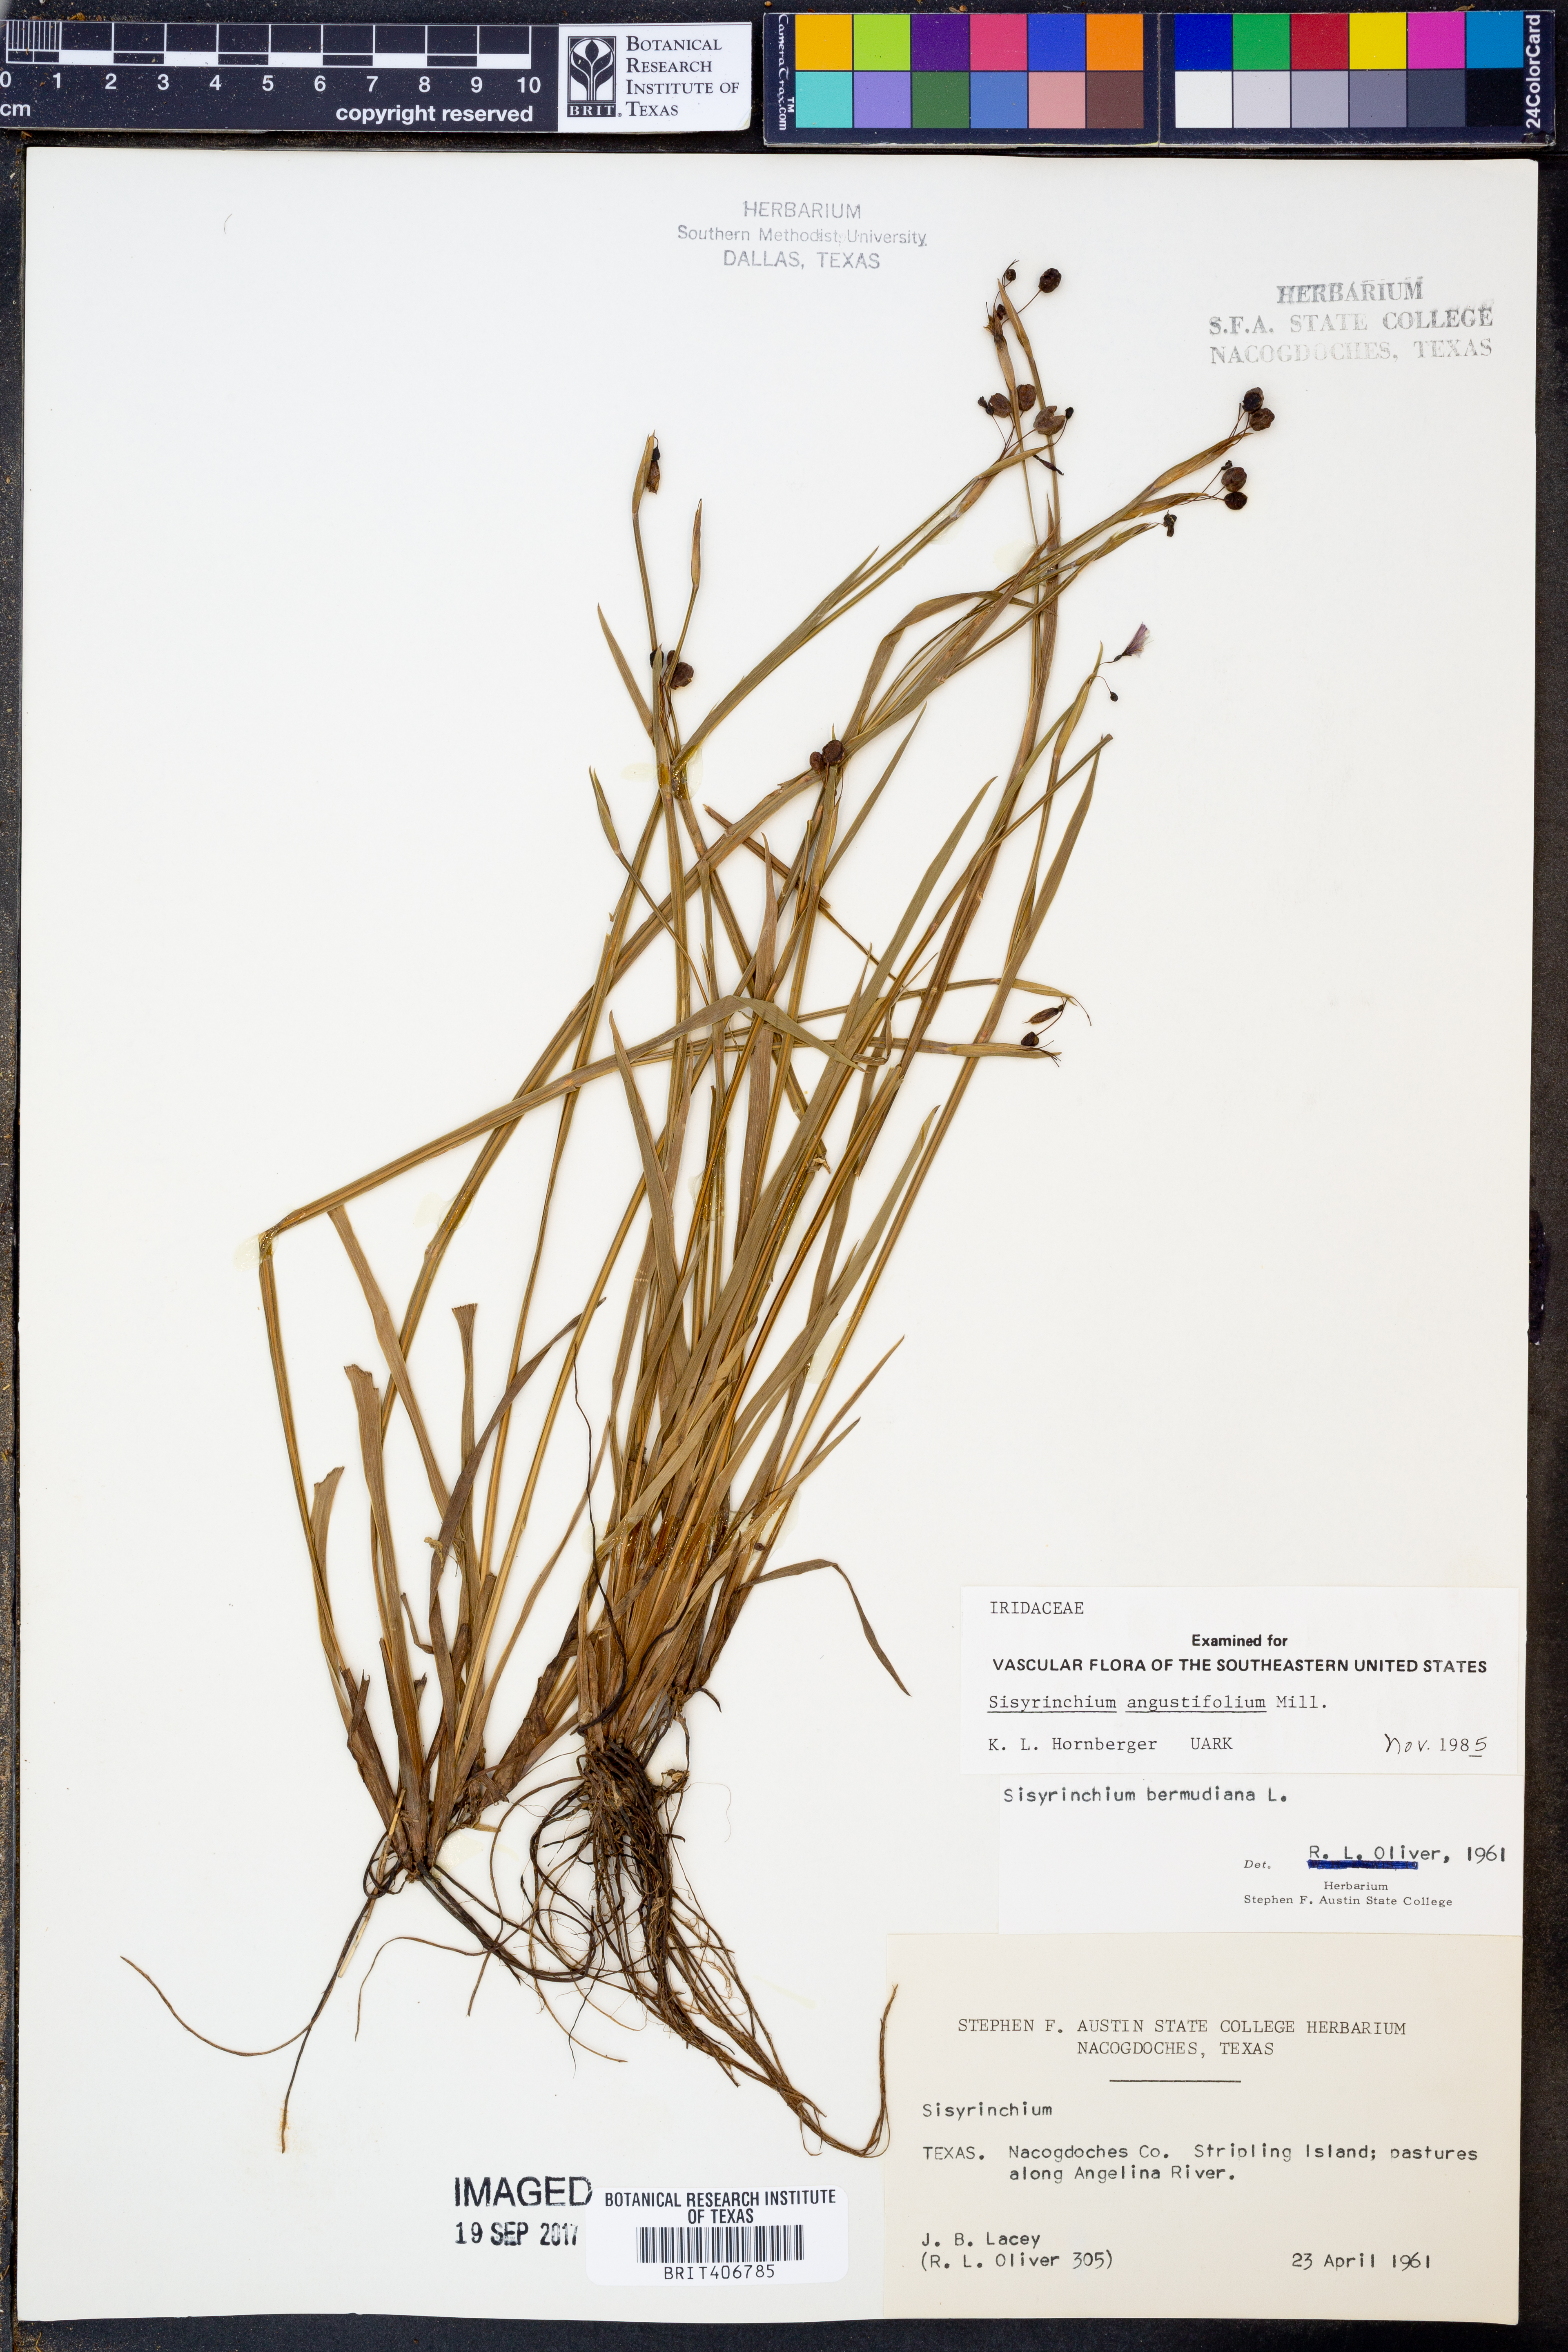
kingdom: Plantae
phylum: Tracheophyta
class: Liliopsida
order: Asparagales
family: Iridaceae
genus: Sisyrinchium
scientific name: Sisyrinchium angustifolium
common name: Narrow-leaf blue-eyed-grass
